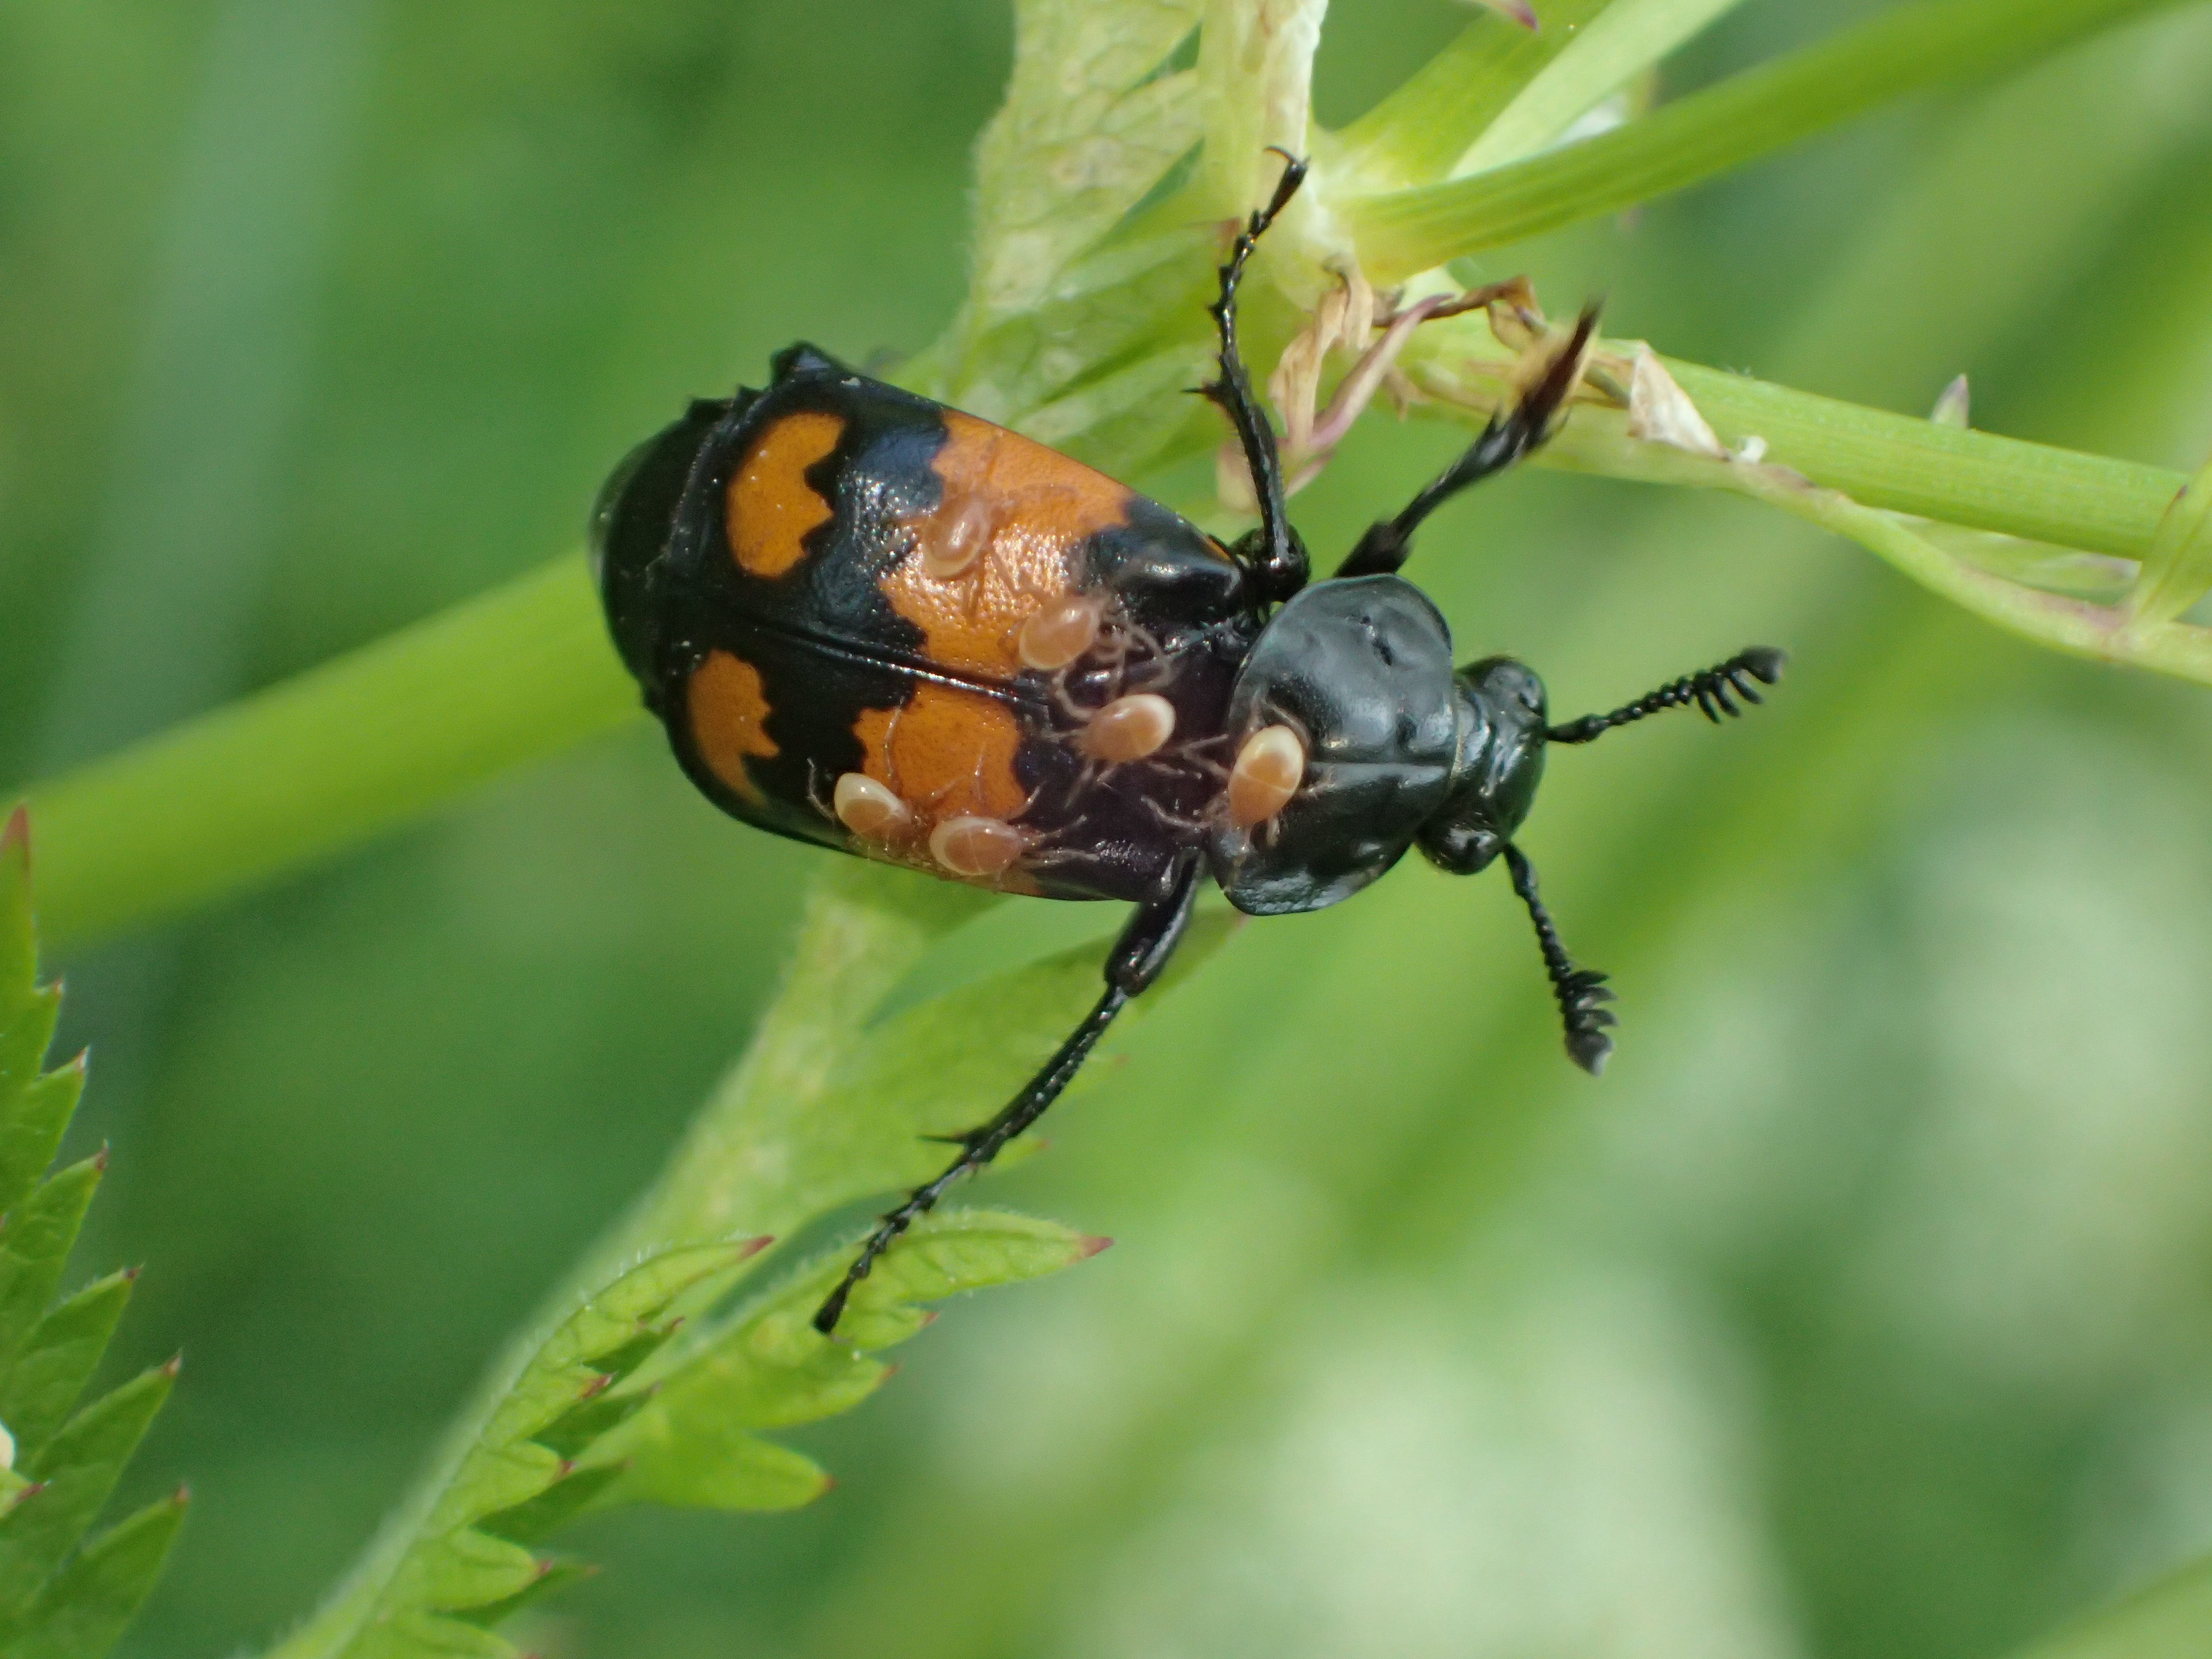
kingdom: Animalia
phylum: Arthropoda
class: Insecta
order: Coleoptera
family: Staphylinidae
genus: Nicrophorus
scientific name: Nicrophorus vespilloides
